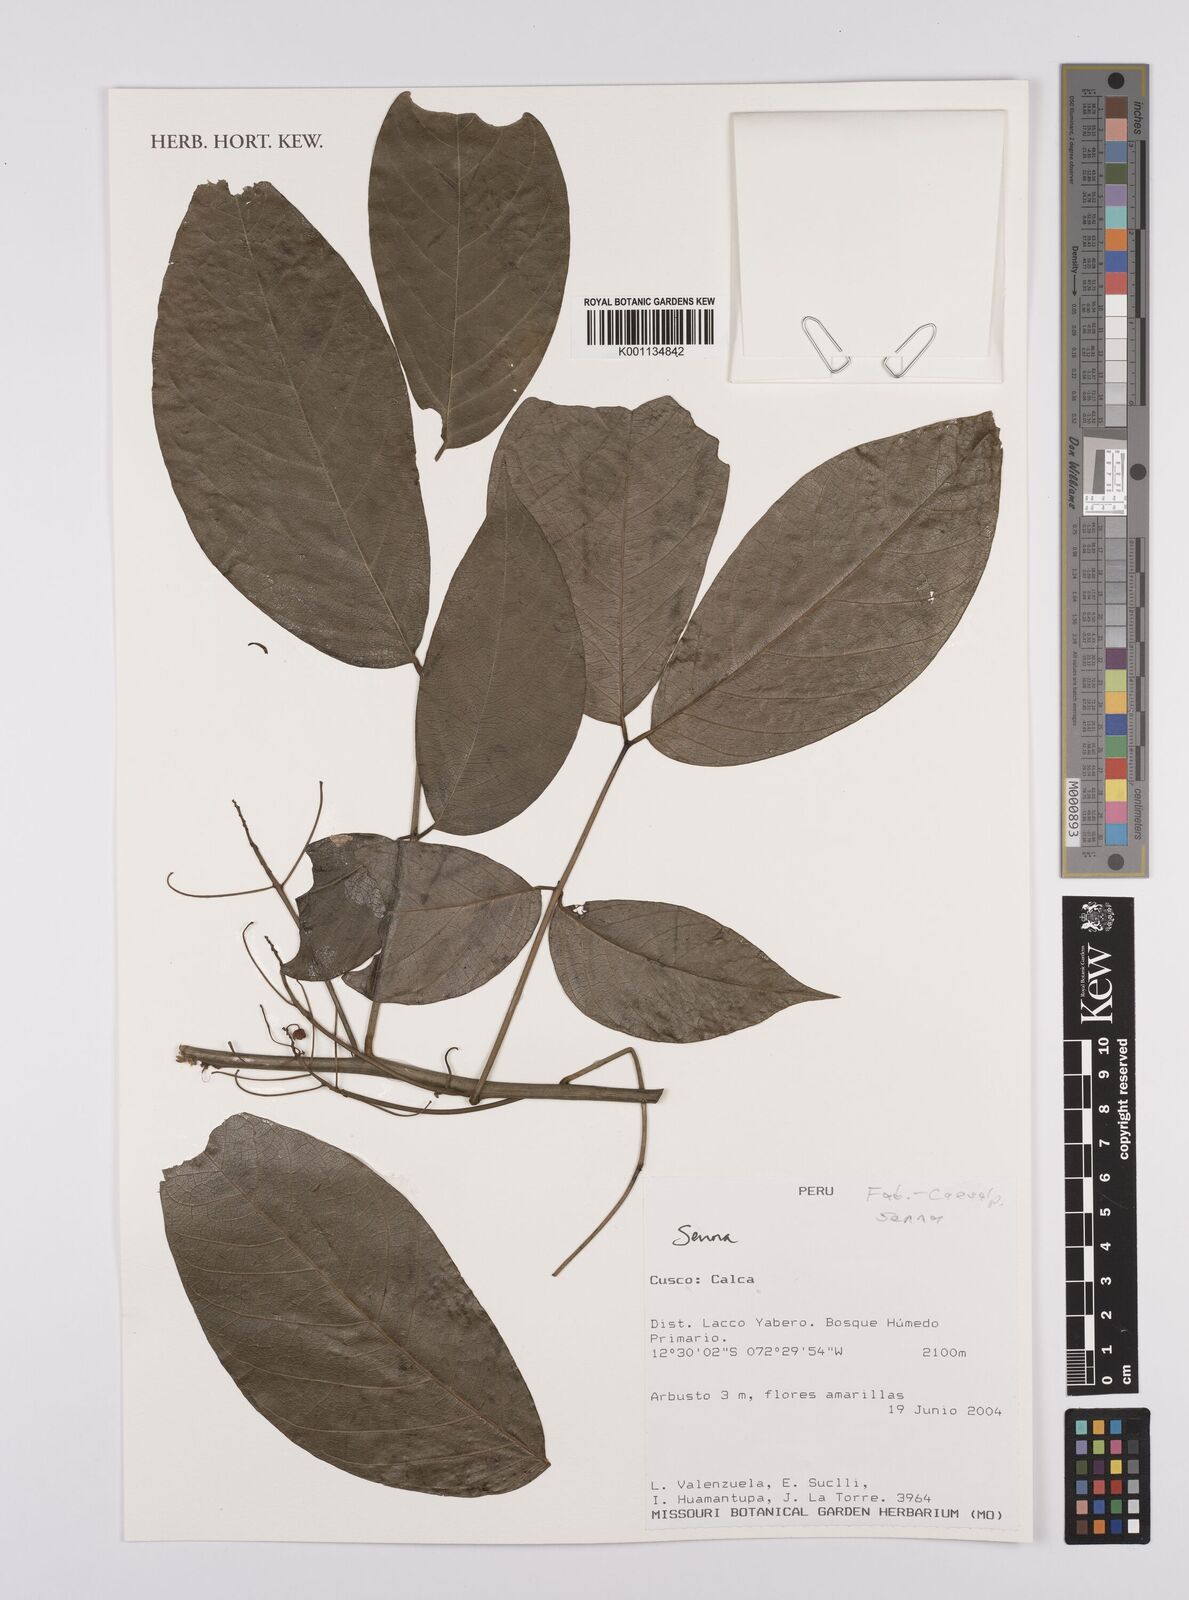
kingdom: Plantae
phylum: Tracheophyta
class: Magnoliopsida
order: Fabales
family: Fabaceae
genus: Senna
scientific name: Senna
